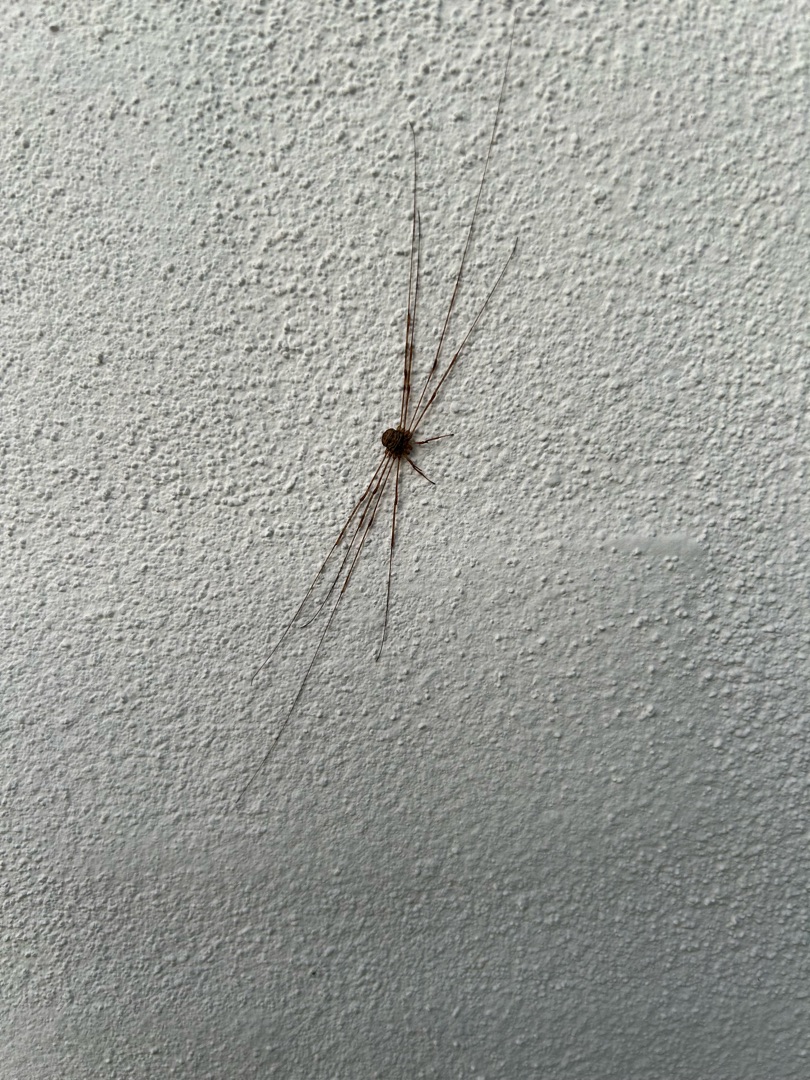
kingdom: Animalia
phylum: Arthropoda
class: Arachnida
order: Opiliones
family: Phalangiidae
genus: Dicranopalpus
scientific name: Dicranopalpus ramosus
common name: Gaffelmejer
